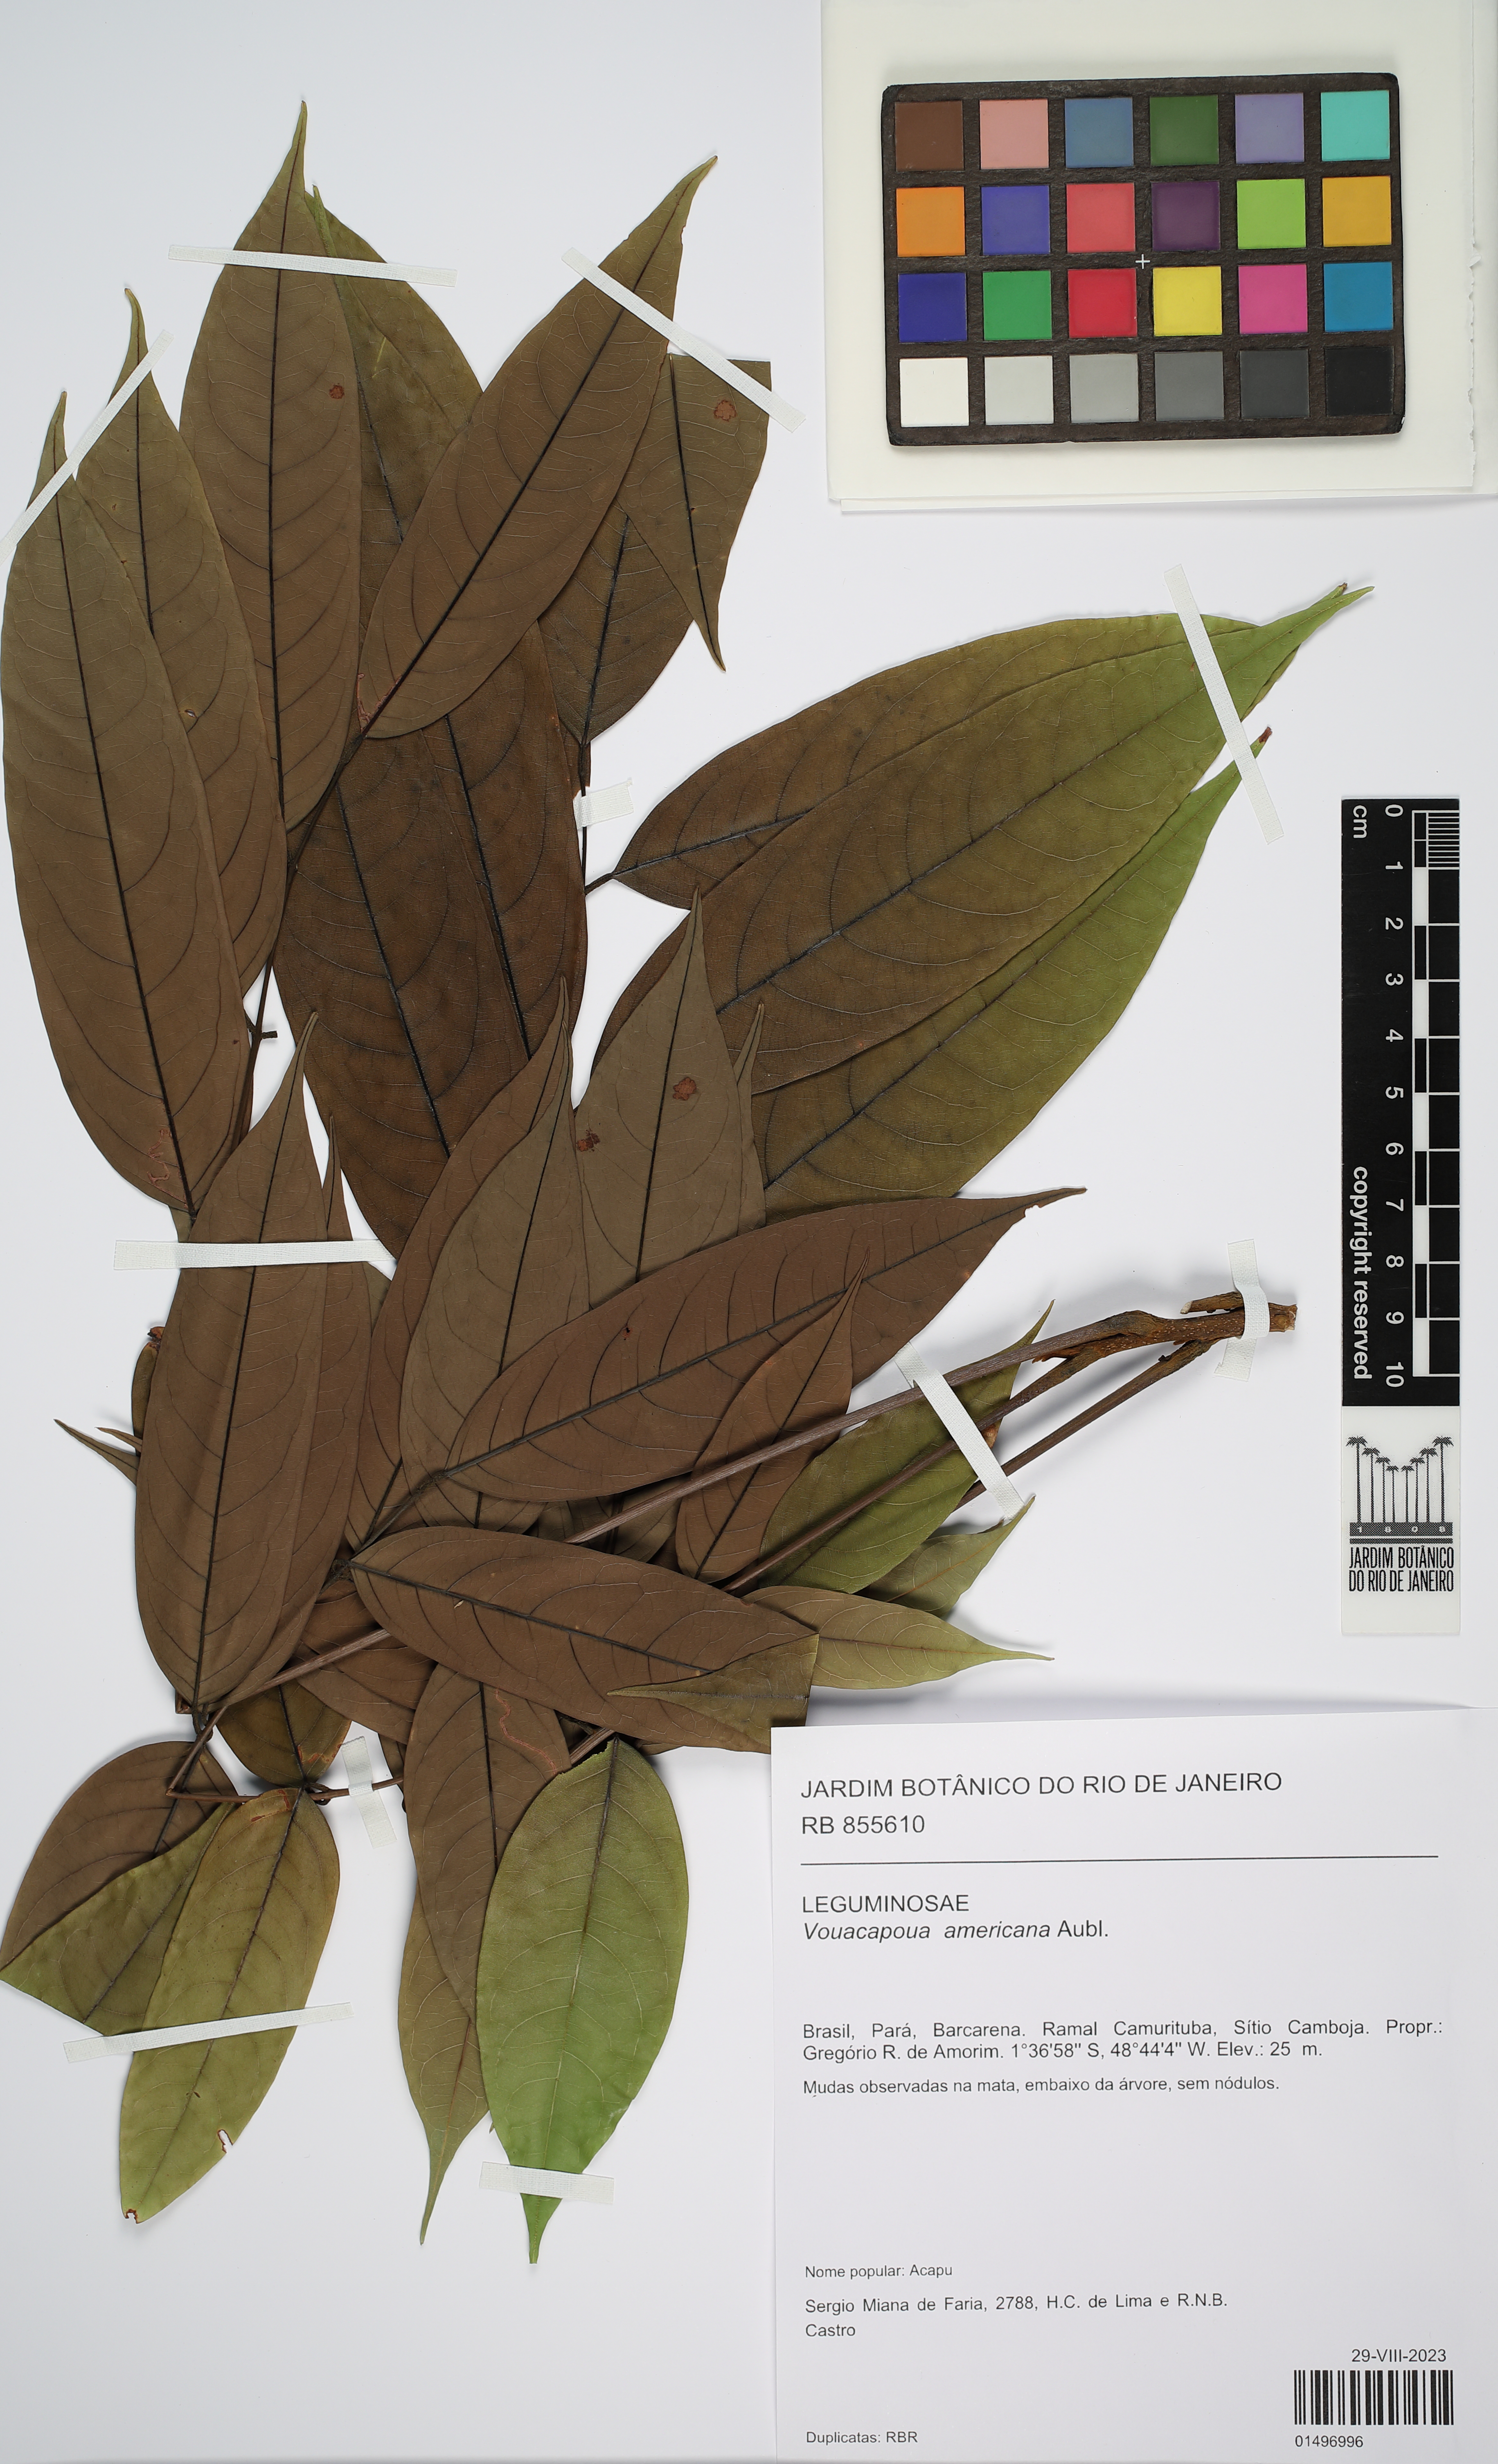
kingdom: Plantae
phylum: Tracheophyta
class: Magnoliopsida
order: Fabales
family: Fabaceae
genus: Vouacapoua
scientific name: Vouacapoua americana
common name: Partridgewood
